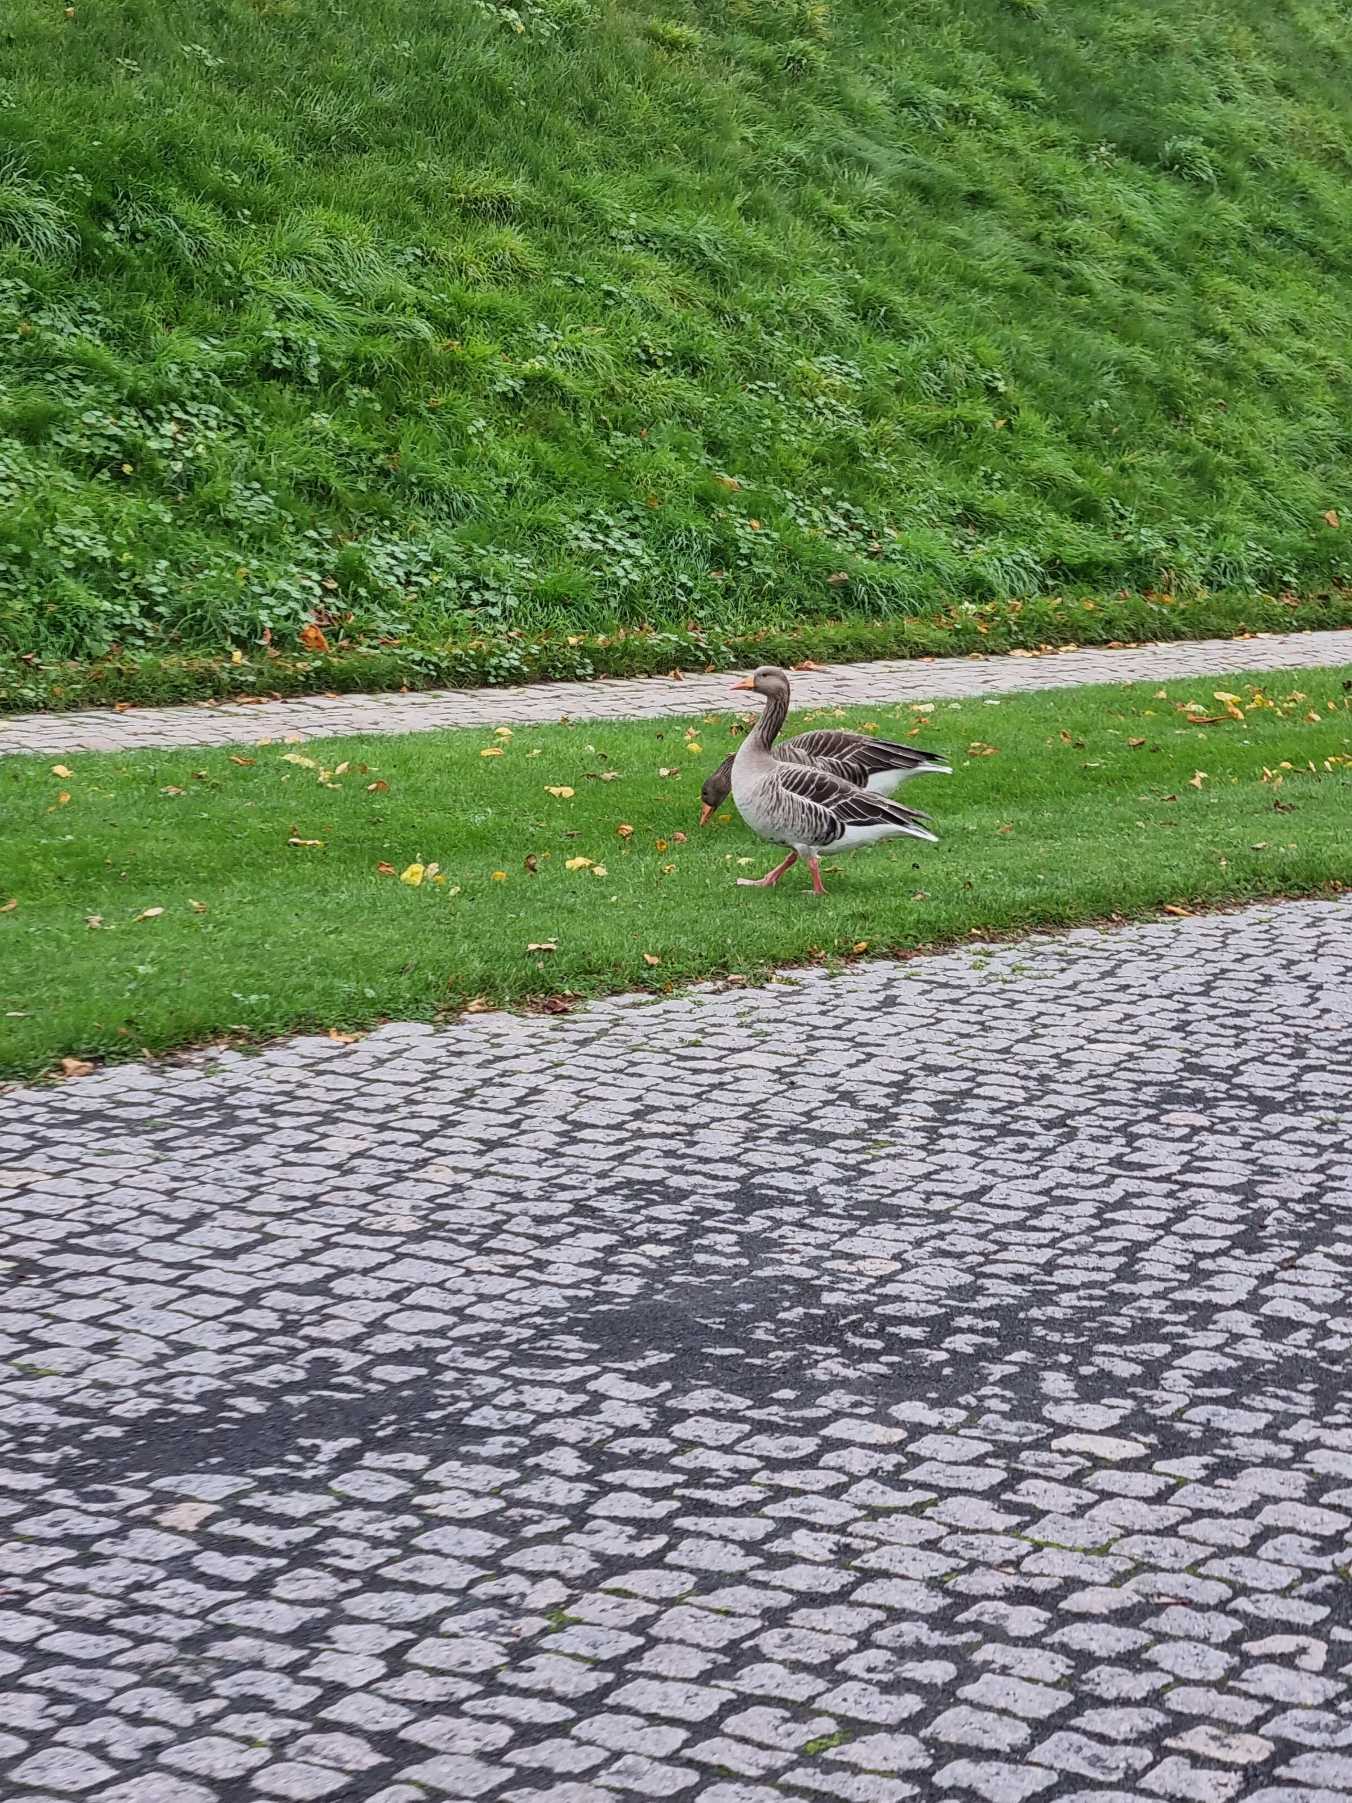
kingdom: Animalia
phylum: Chordata
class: Aves
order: Anseriformes
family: Anatidae
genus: Anser
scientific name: Anser anser
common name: Grågås
